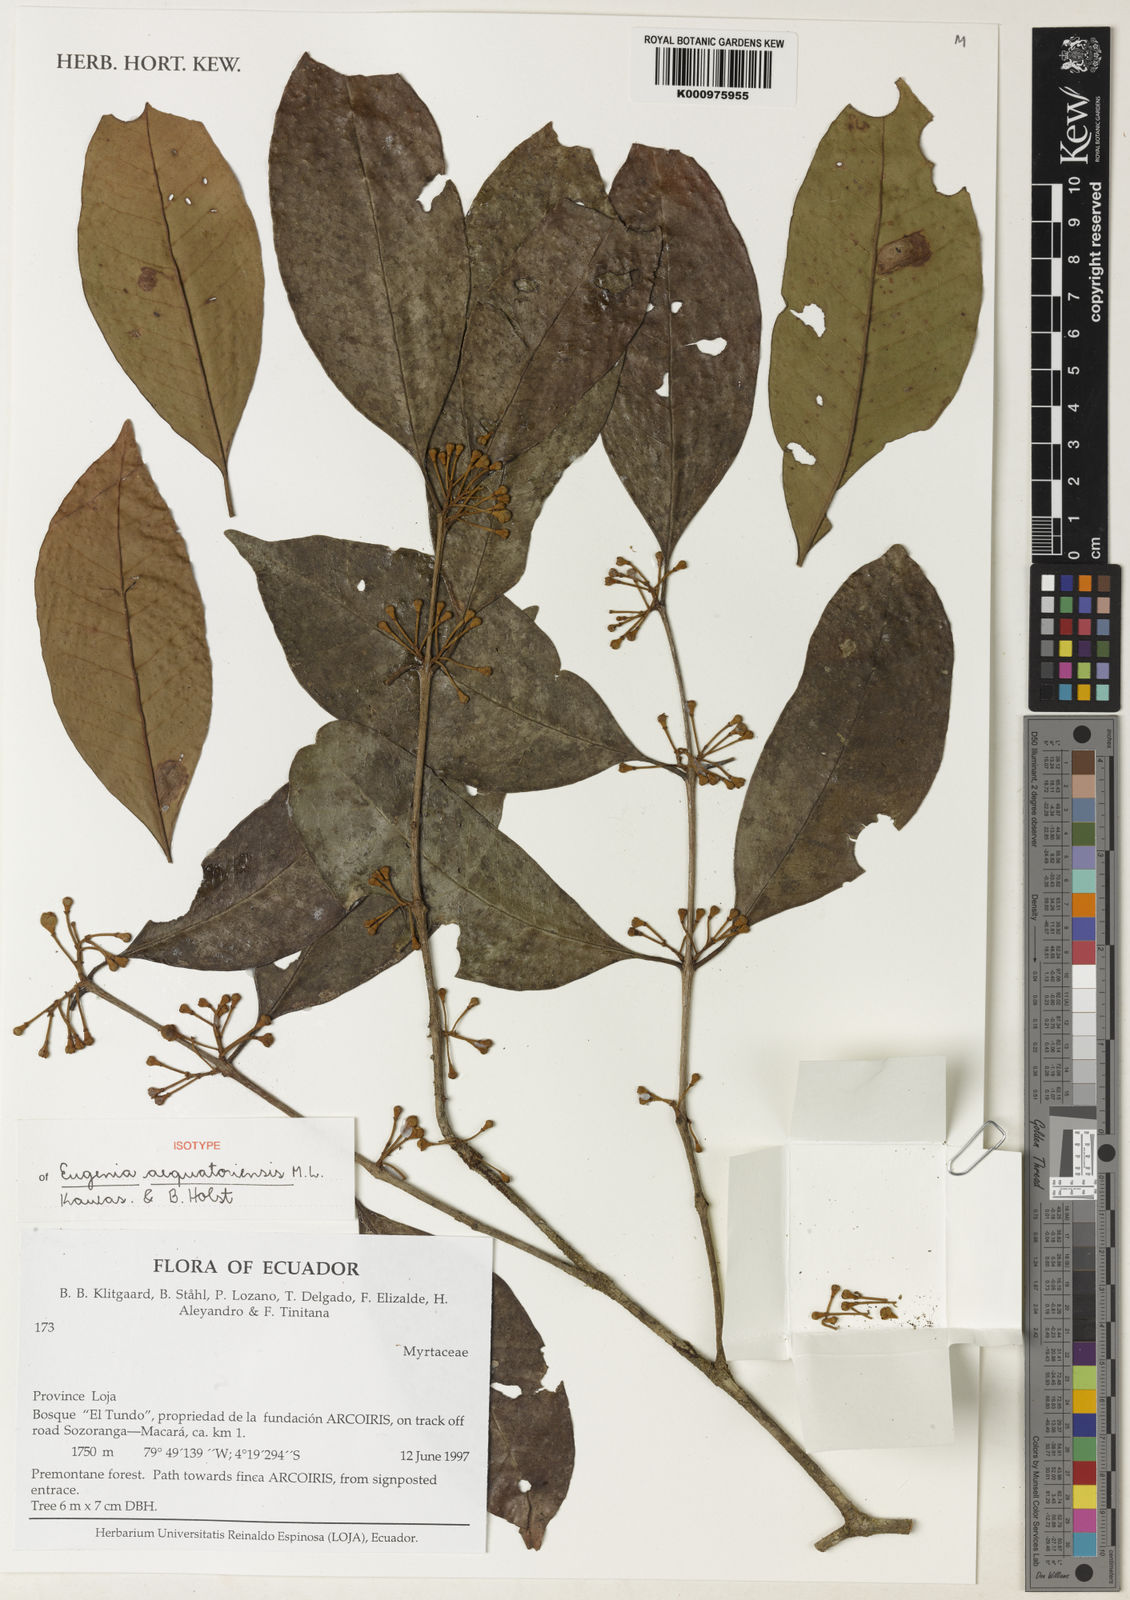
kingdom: Plantae
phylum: Tracheophyta
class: Magnoliopsida
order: Myrtales
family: Myrtaceae
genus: Eugenia
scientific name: Eugenia aequatoriensis
